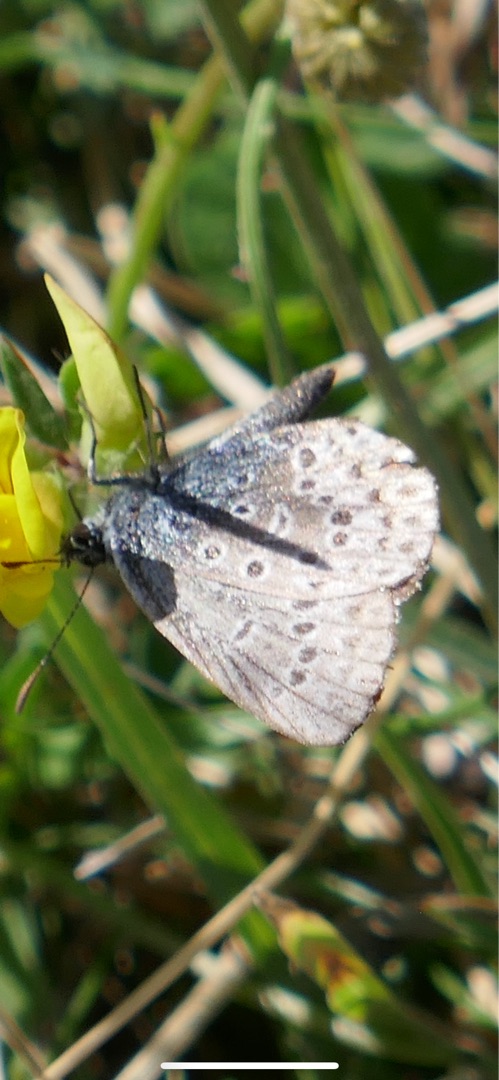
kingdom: Animalia
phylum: Arthropoda
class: Insecta
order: Lepidoptera
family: Lycaenidae
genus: Polyommatus
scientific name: Polyommatus icarus
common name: Almindelig blåfugl
